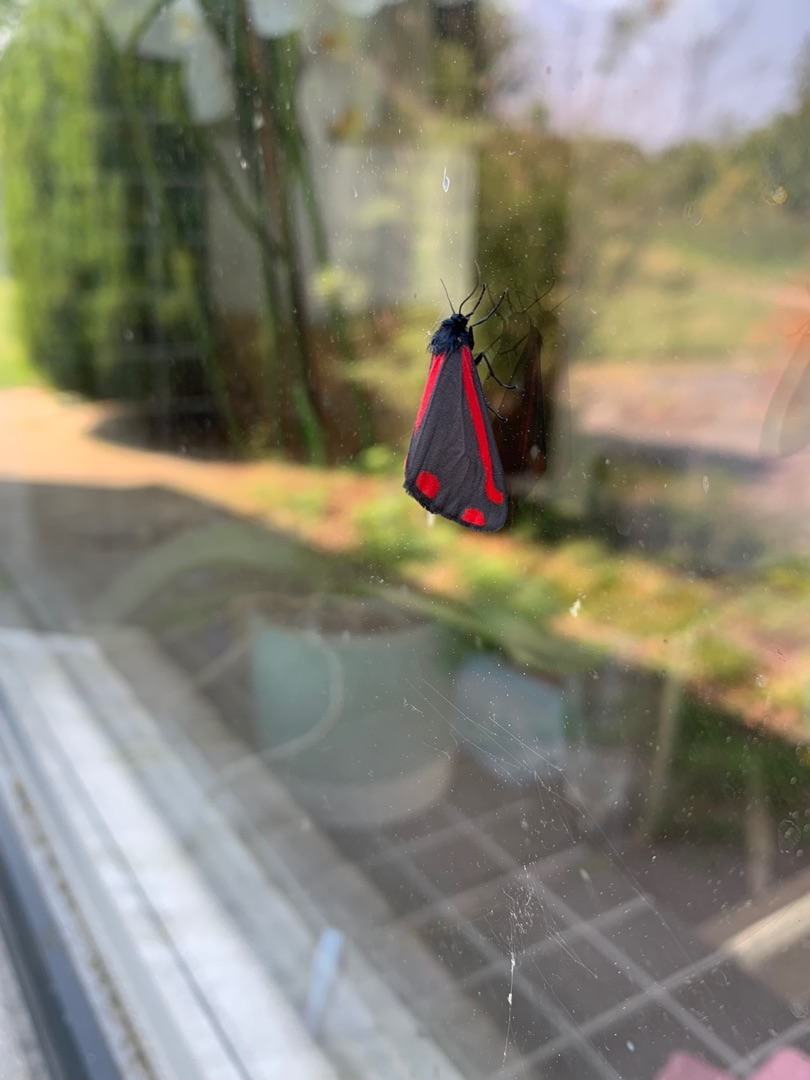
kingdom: Animalia
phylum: Arthropoda
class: Insecta
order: Lepidoptera
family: Erebidae
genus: Tyria
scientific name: Tyria jacobaeae
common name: Blodplet
